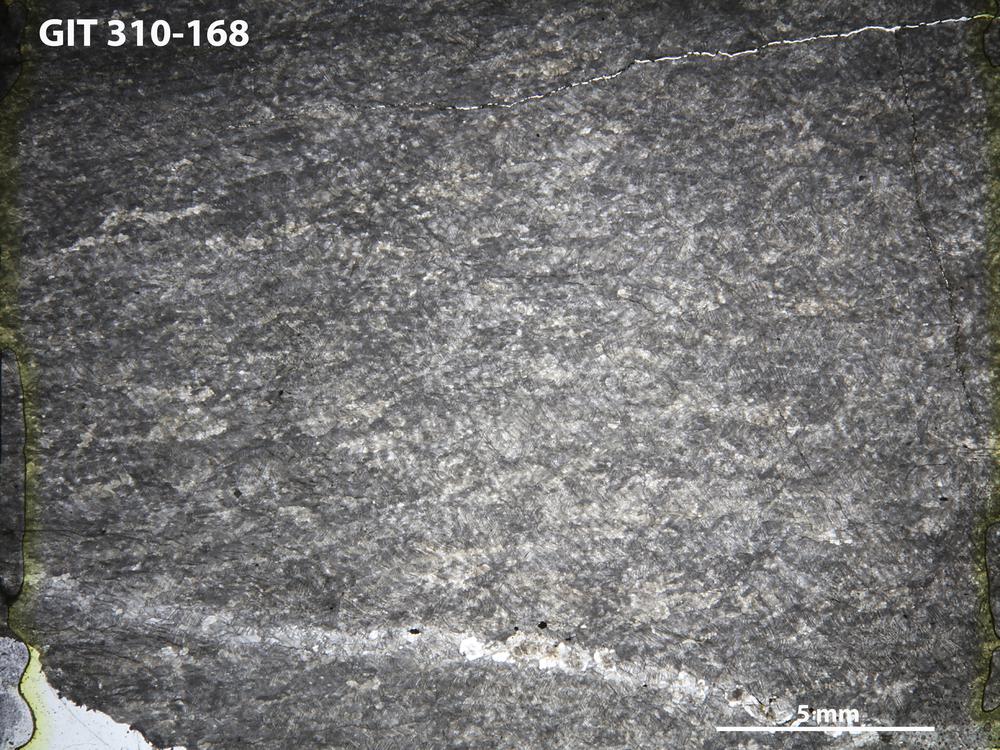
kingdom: Animalia
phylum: Porifera
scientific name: Porifera
